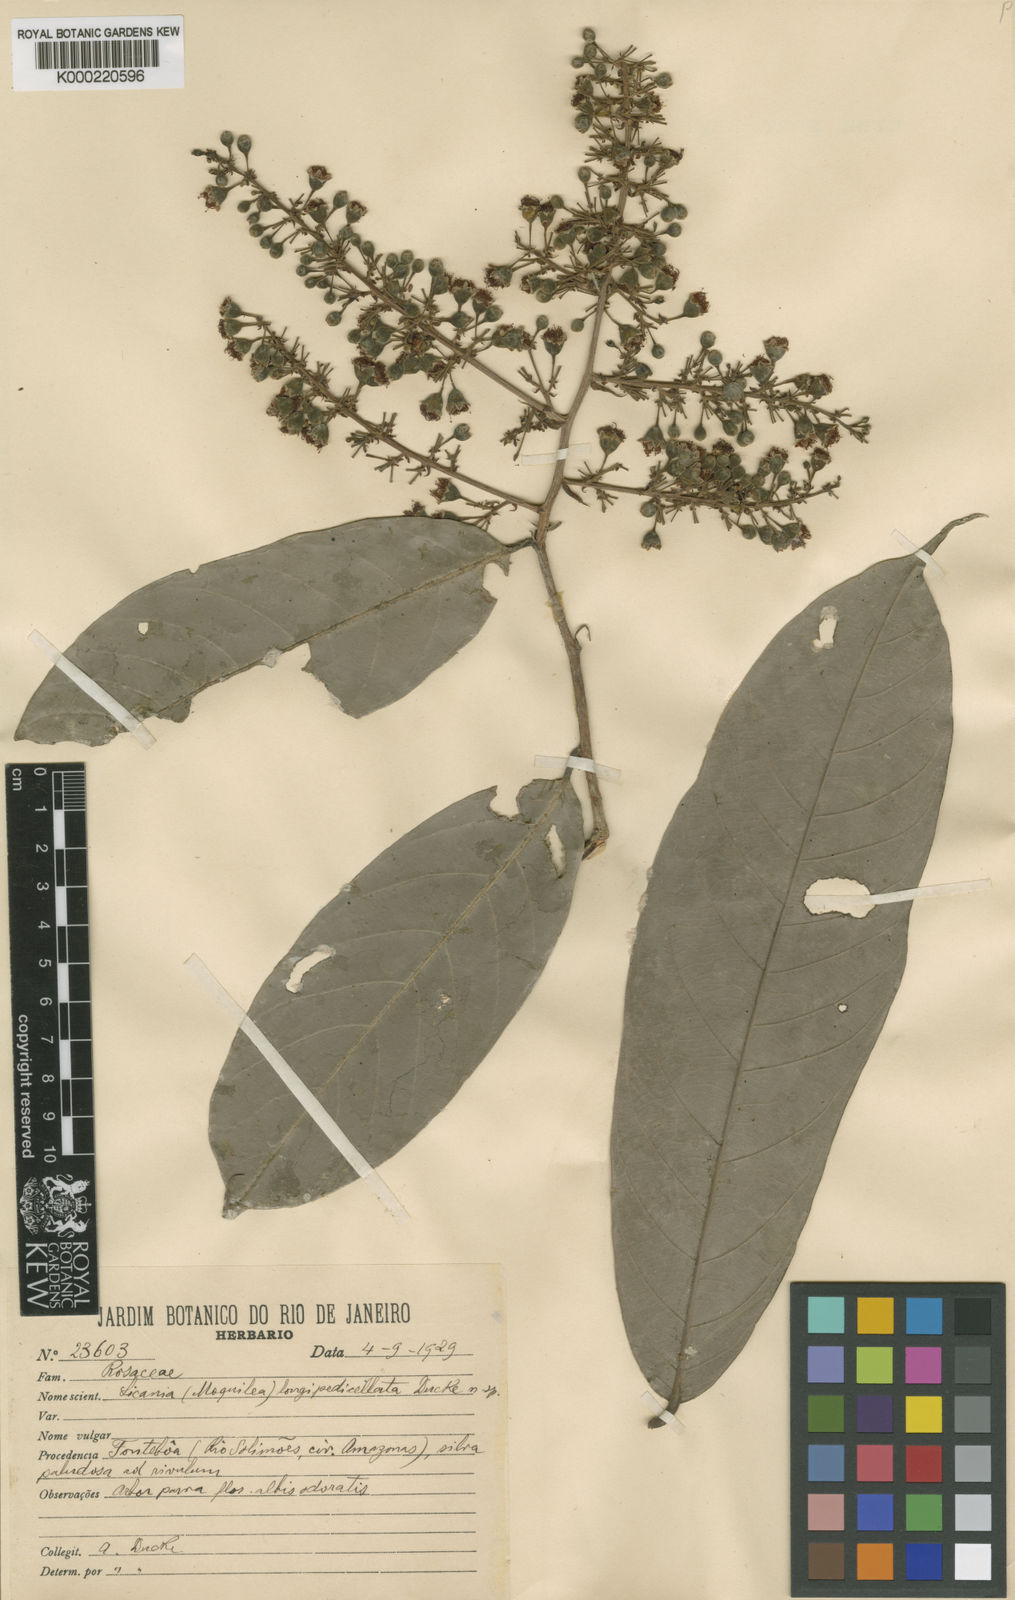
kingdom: Plantae
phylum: Tracheophyta
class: Magnoliopsida
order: Malpighiales
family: Chrysobalanaceae
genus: Moquilea
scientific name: Moquilea longipedicellata
